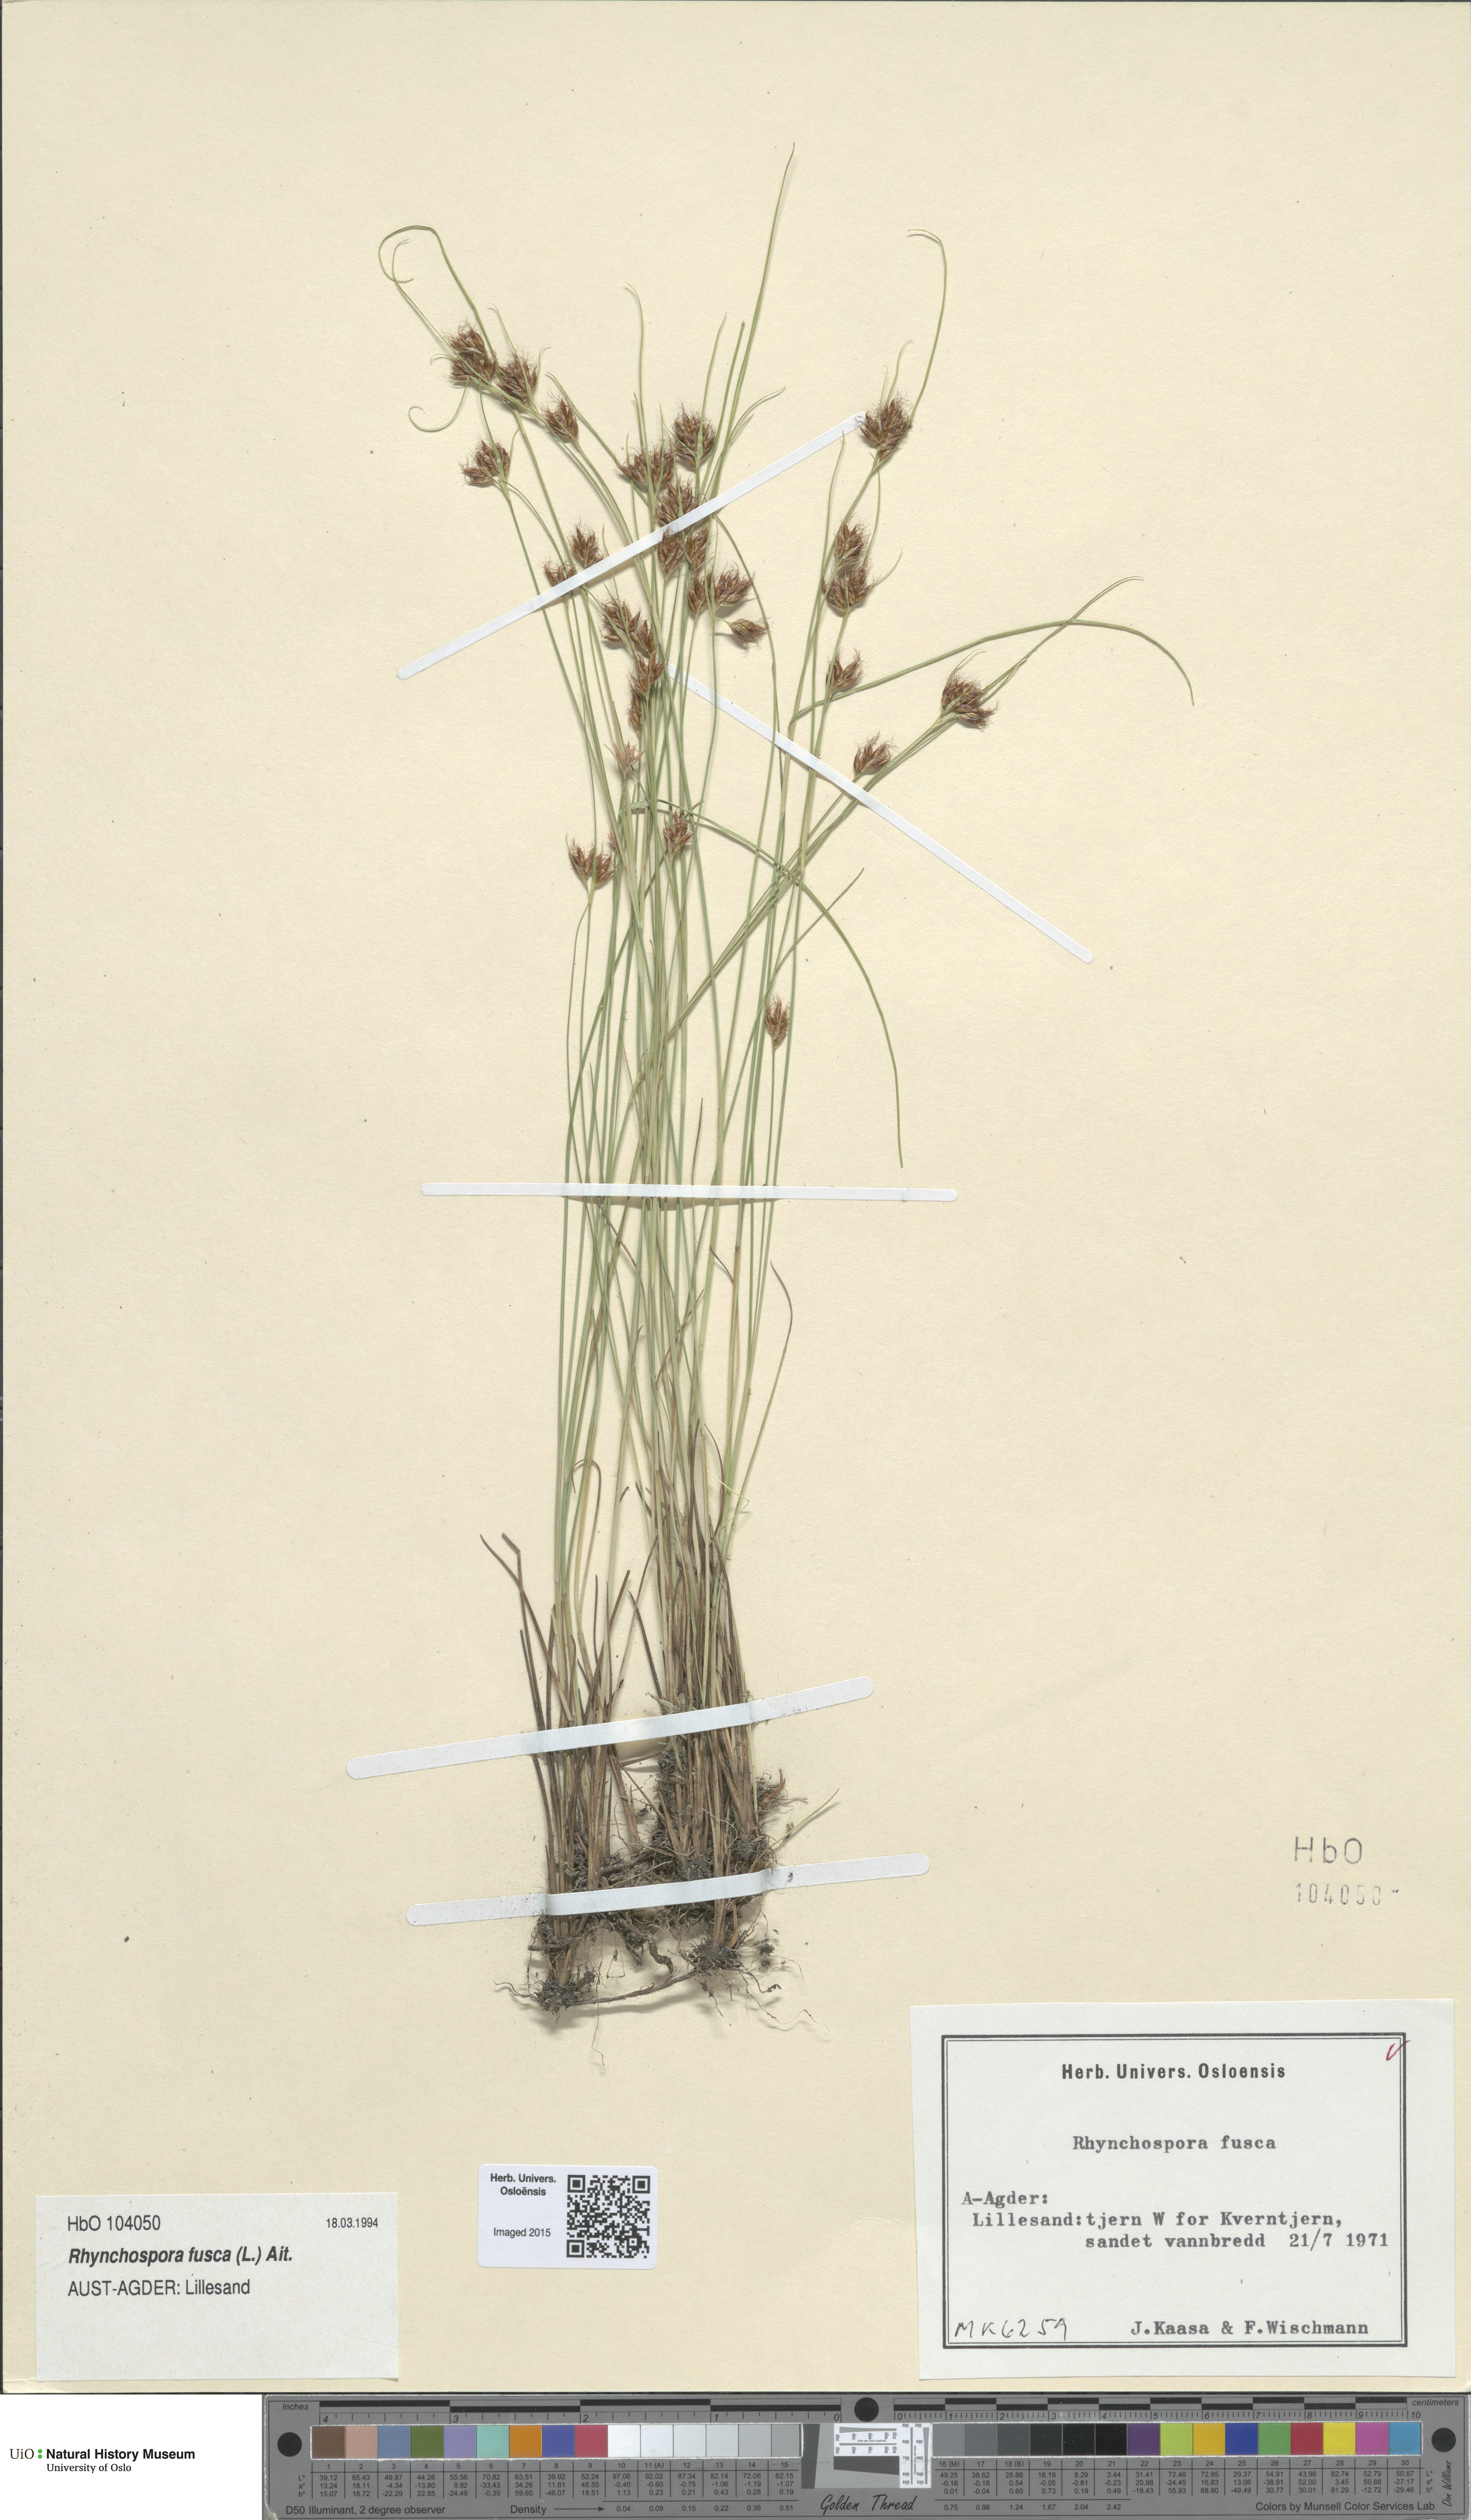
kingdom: Plantae
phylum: Tracheophyta
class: Liliopsida
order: Poales
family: Cyperaceae
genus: Rhynchospora
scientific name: Rhynchospora fusca
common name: Brown beak-sedge
